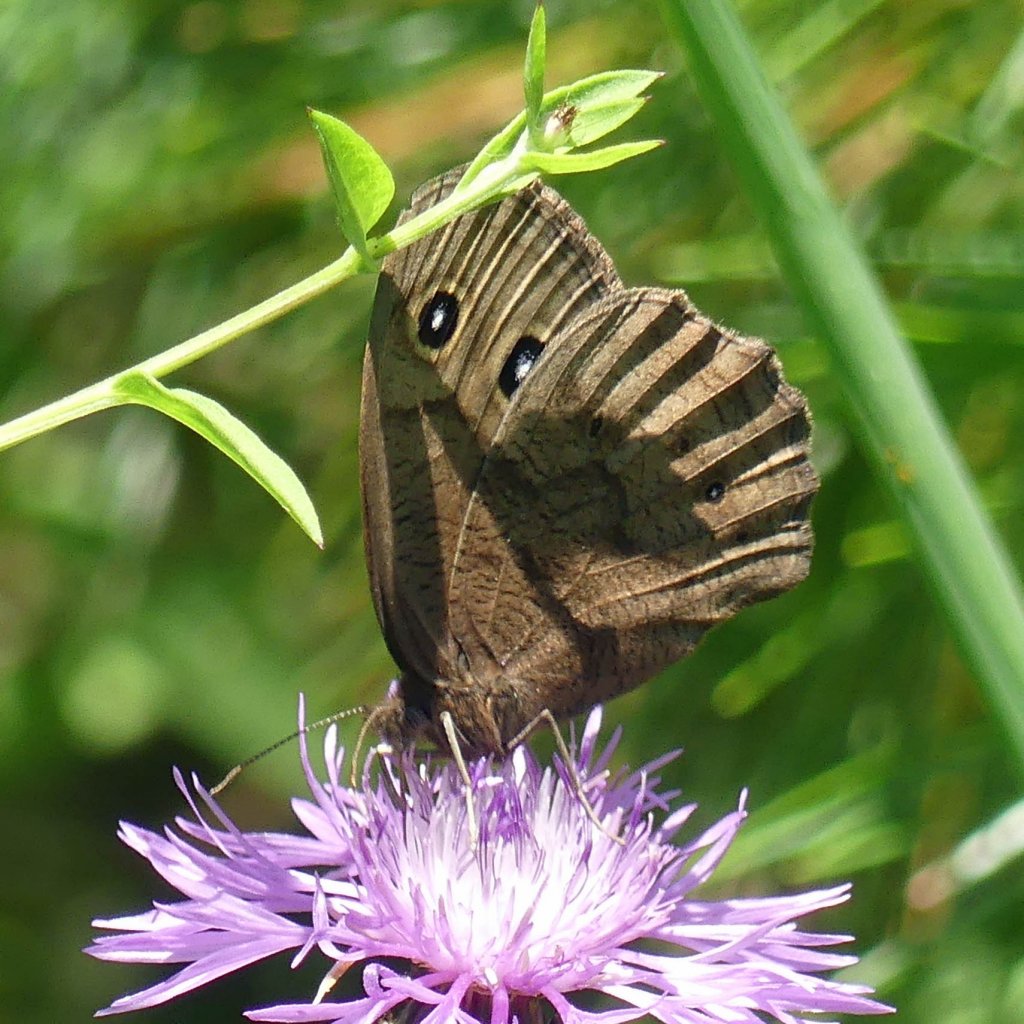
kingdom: Animalia
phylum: Arthropoda
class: Insecta
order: Lepidoptera
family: Nymphalidae
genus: Cercyonis
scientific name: Cercyonis pegala
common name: Common Wood-Nymph
